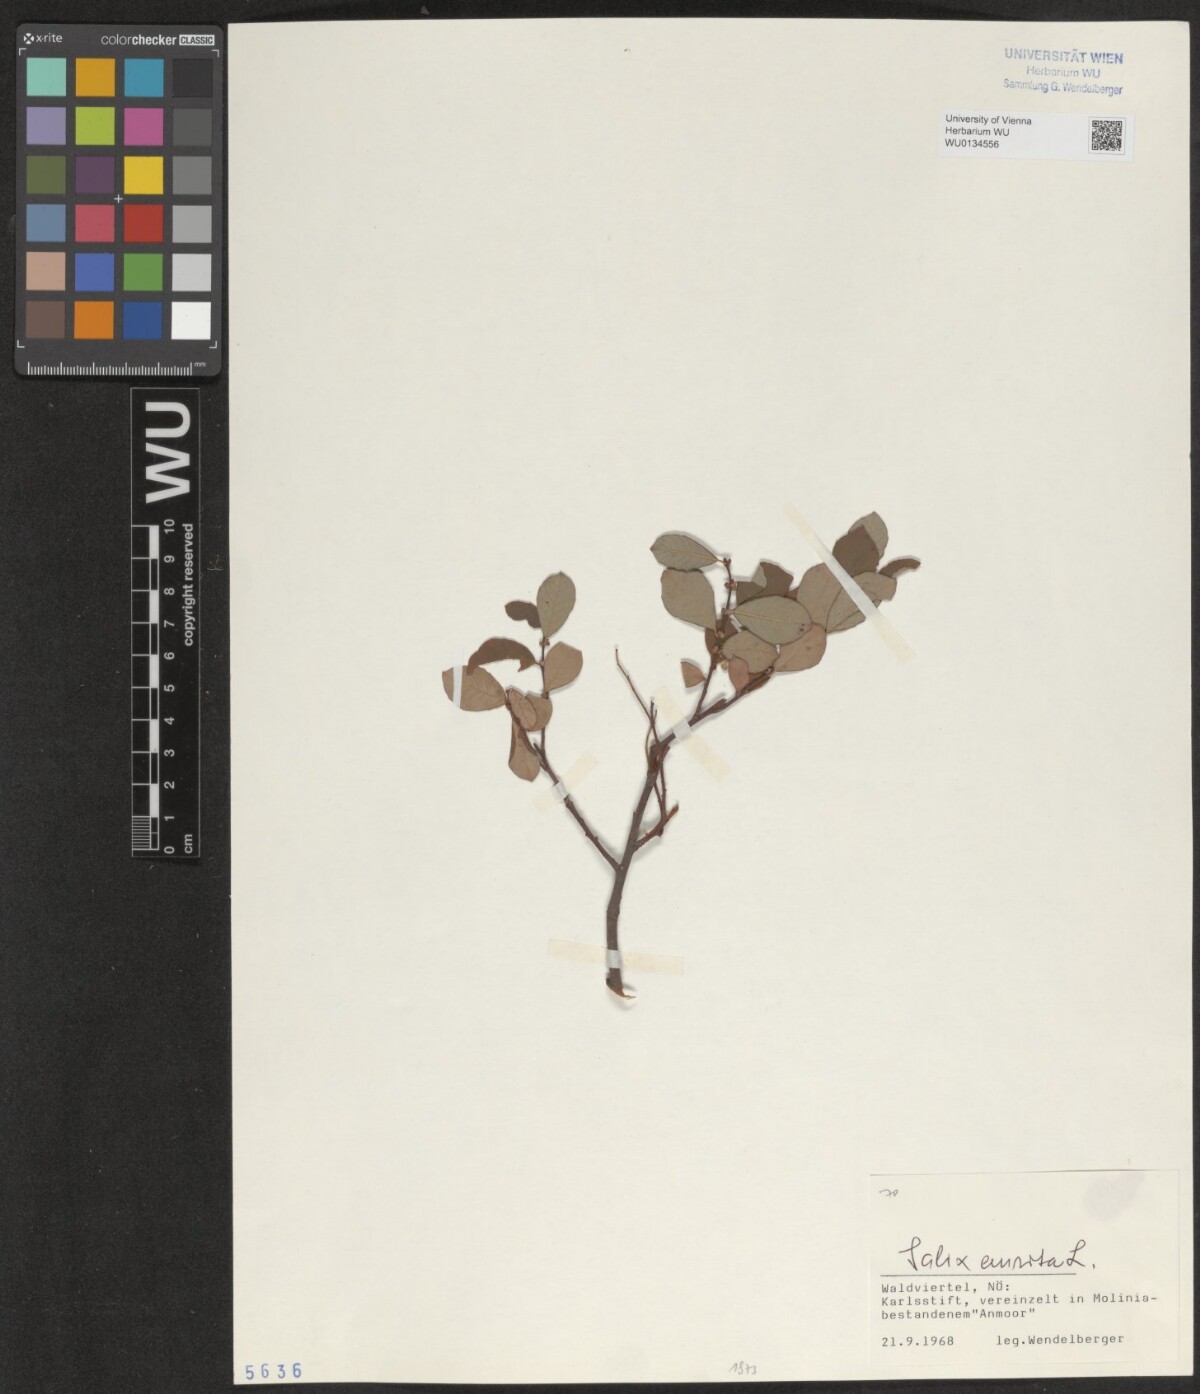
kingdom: Plantae
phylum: Tracheophyta
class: Magnoliopsida
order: Malpighiales
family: Salicaceae
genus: Salix
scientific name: Salix aurita
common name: Eared willow
